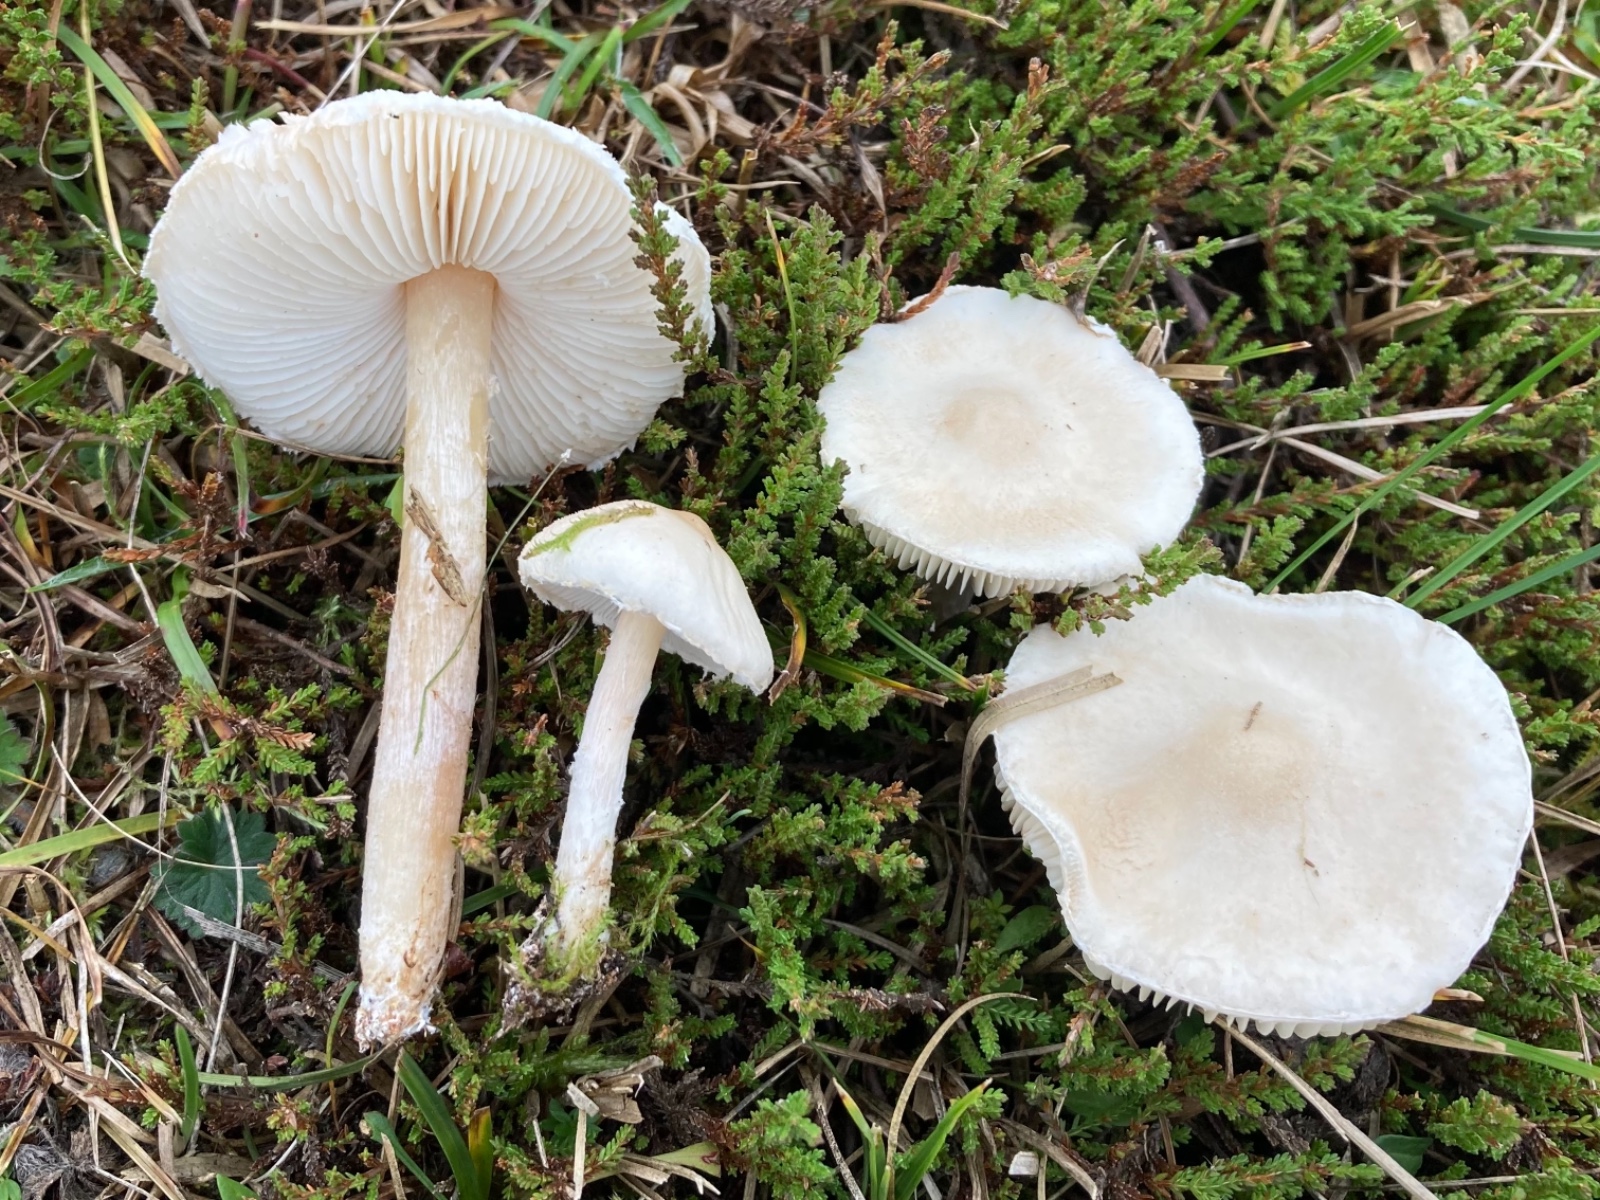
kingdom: Fungi
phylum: Basidiomycota
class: Agaricomycetes
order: Agaricales
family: Agaricaceae
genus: Lepiota
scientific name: Lepiota erminea
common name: hvid parasolhat
